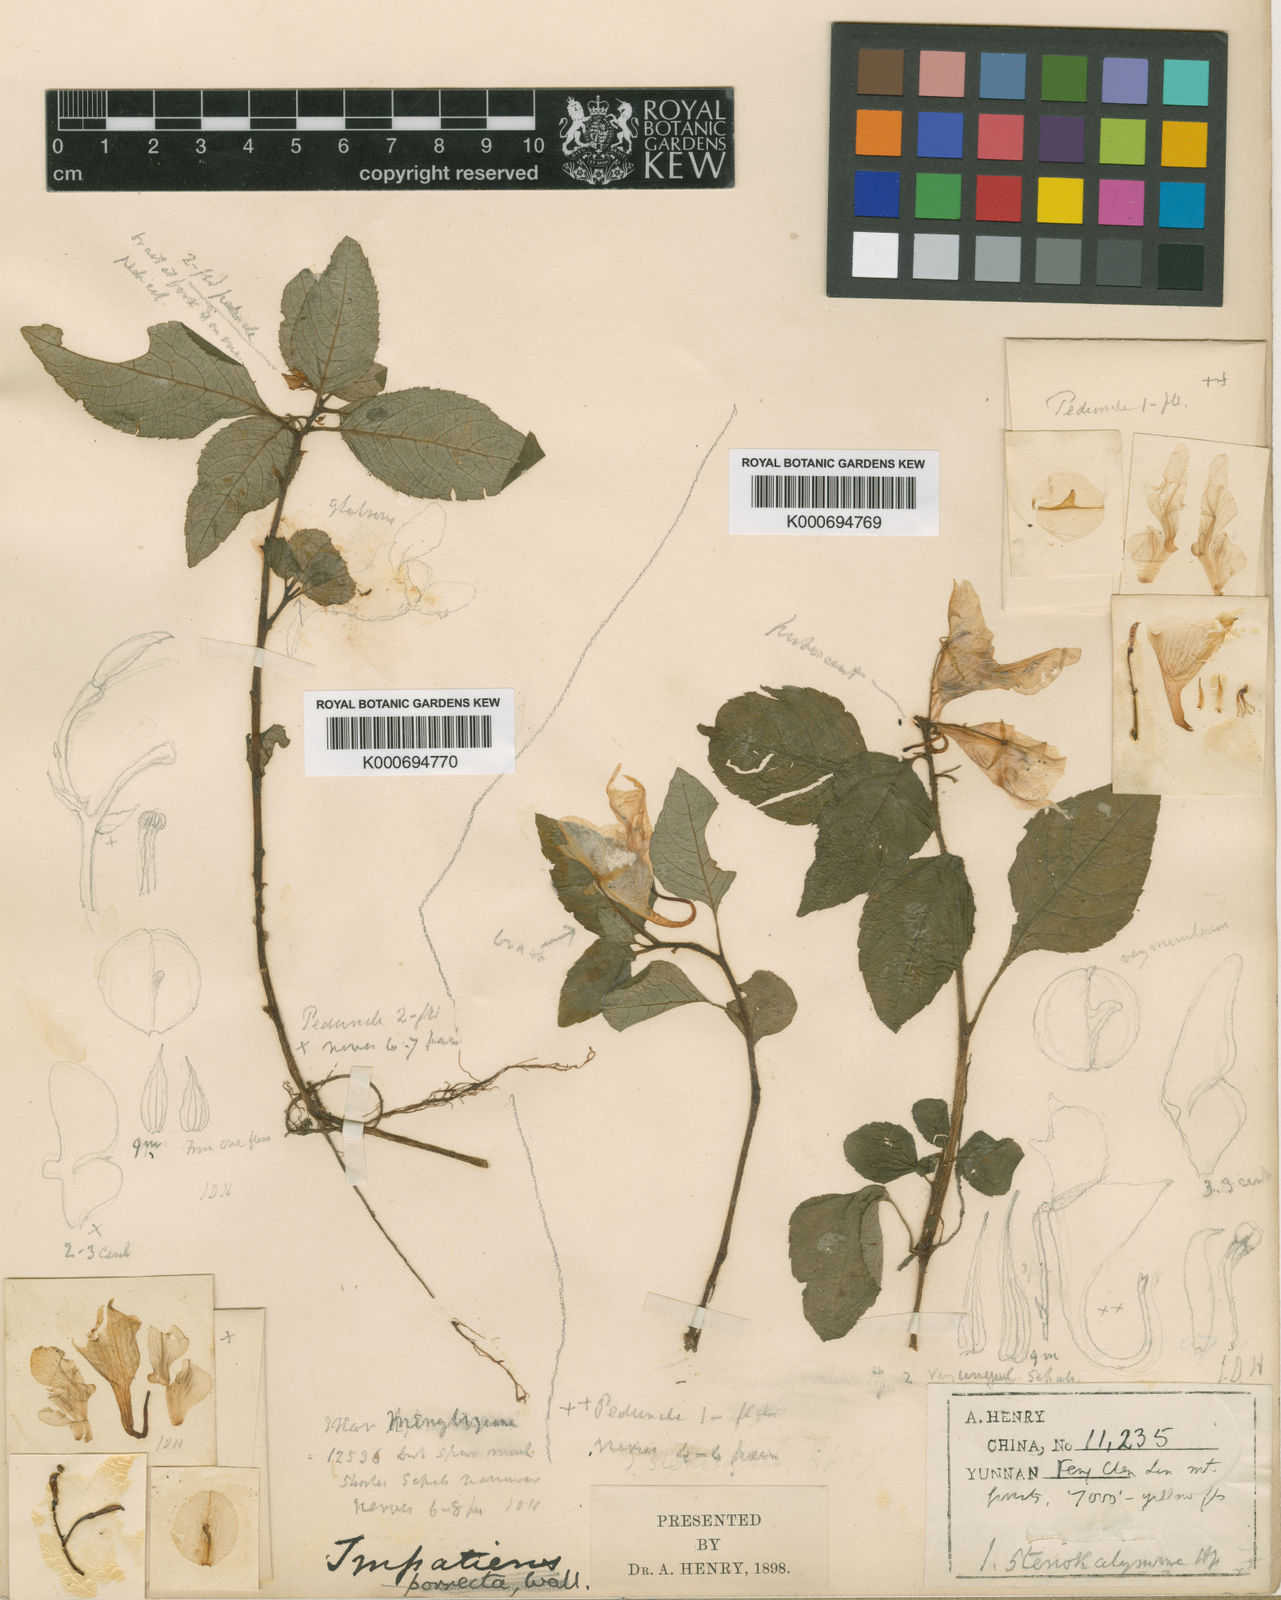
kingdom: Plantae
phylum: Tracheophyta
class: Magnoliopsida
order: Ericales
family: Balsaminaceae
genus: Impatiens
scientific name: Impatiens
